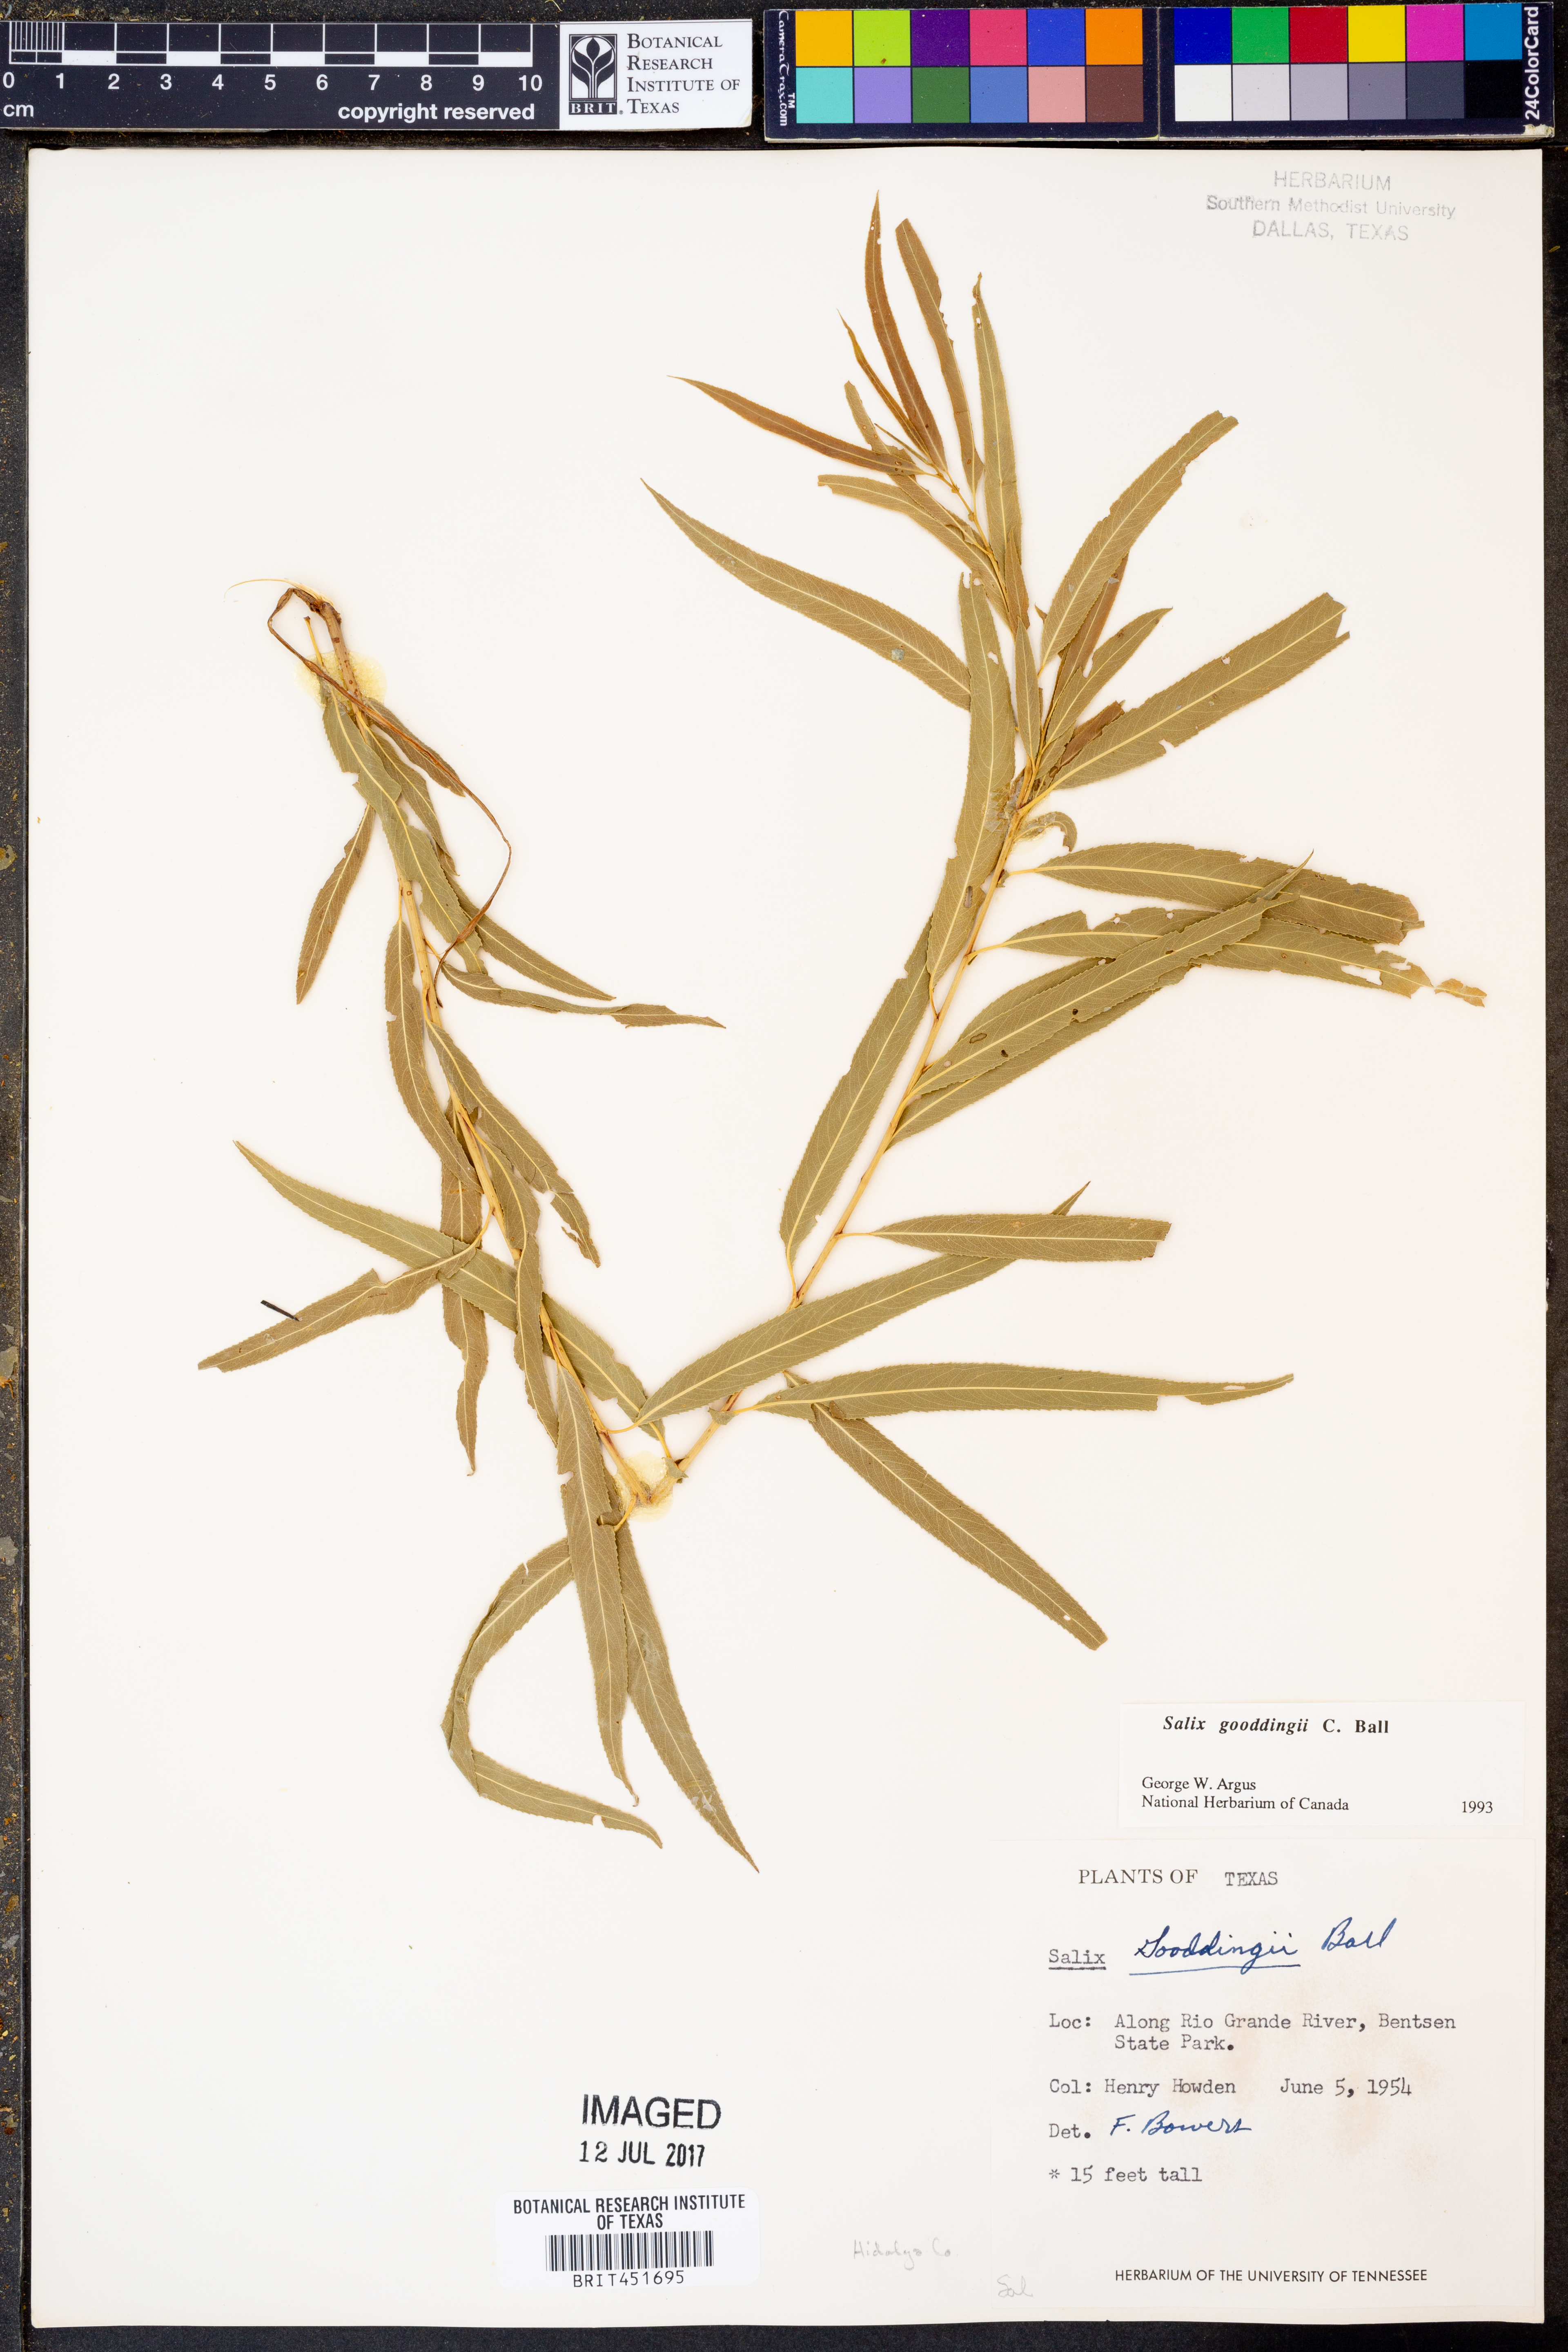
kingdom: Plantae
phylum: Tracheophyta
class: Magnoliopsida
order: Malpighiales
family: Salicaceae
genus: Salix
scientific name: Salix gooddingii
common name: Goodding's willow
